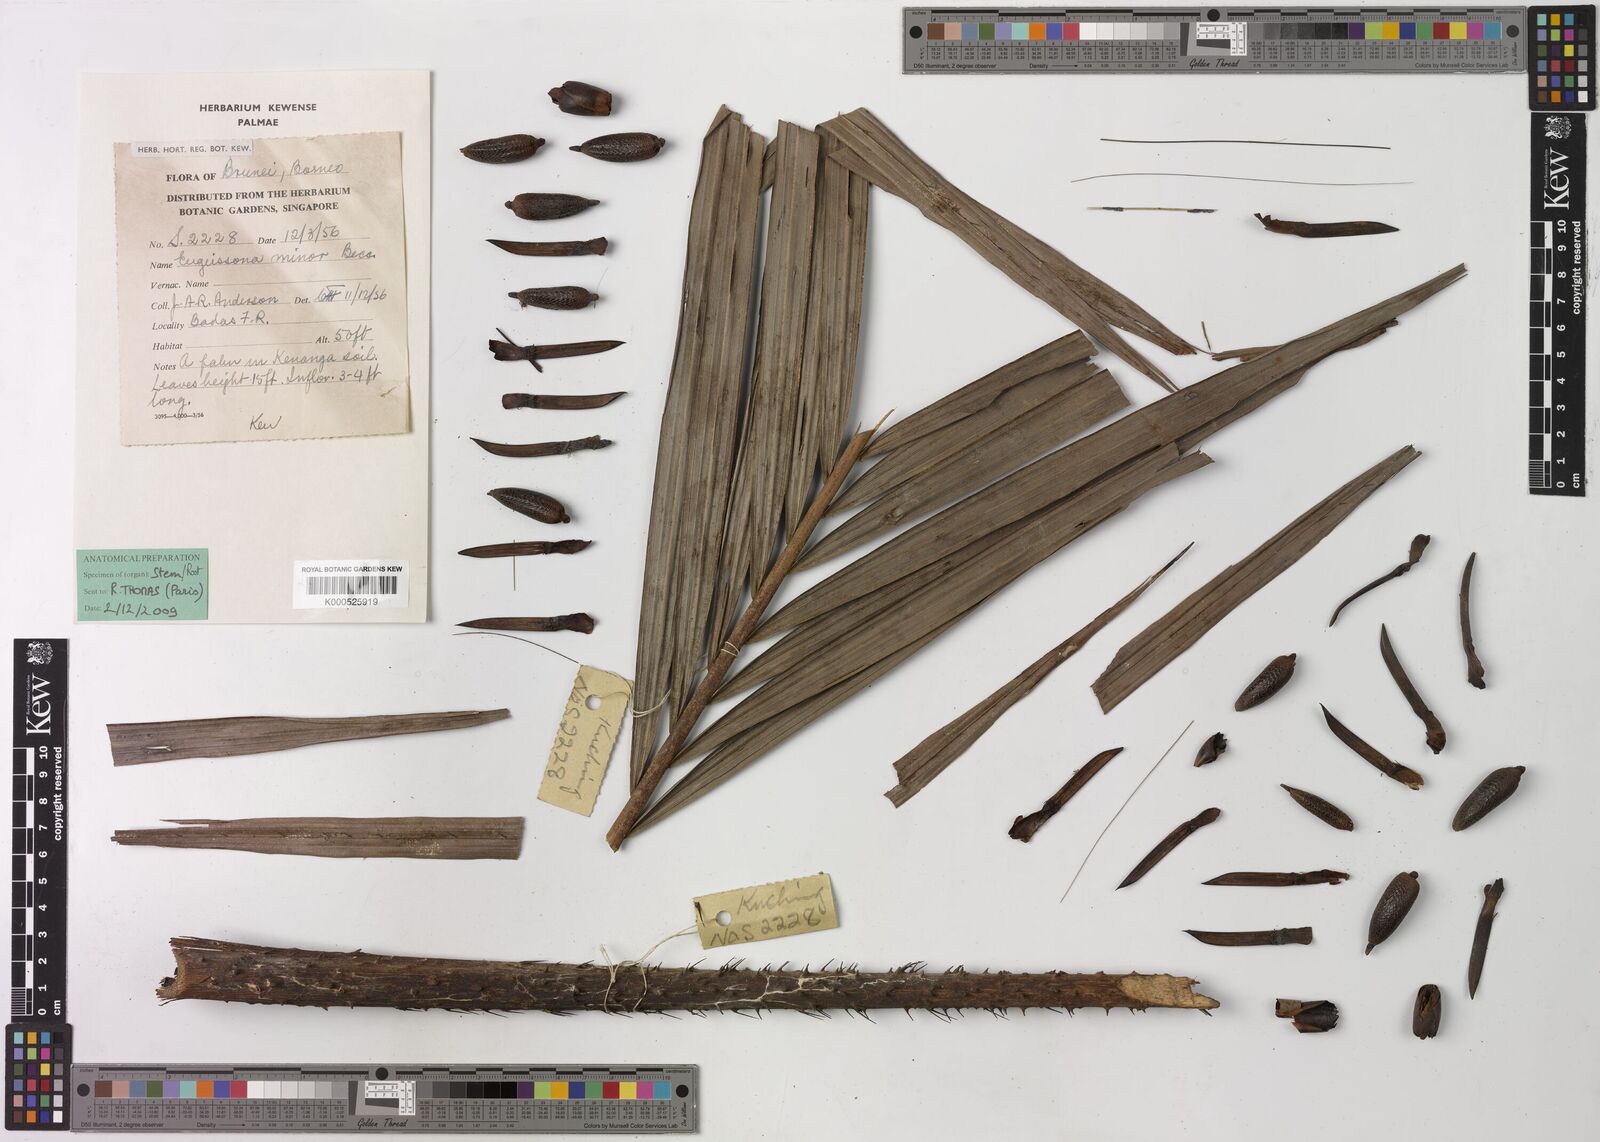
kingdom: Plantae
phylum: Tracheophyta
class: Liliopsida
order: Arecales
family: Arecaceae
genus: Eugeissona
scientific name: Eugeissona minor
